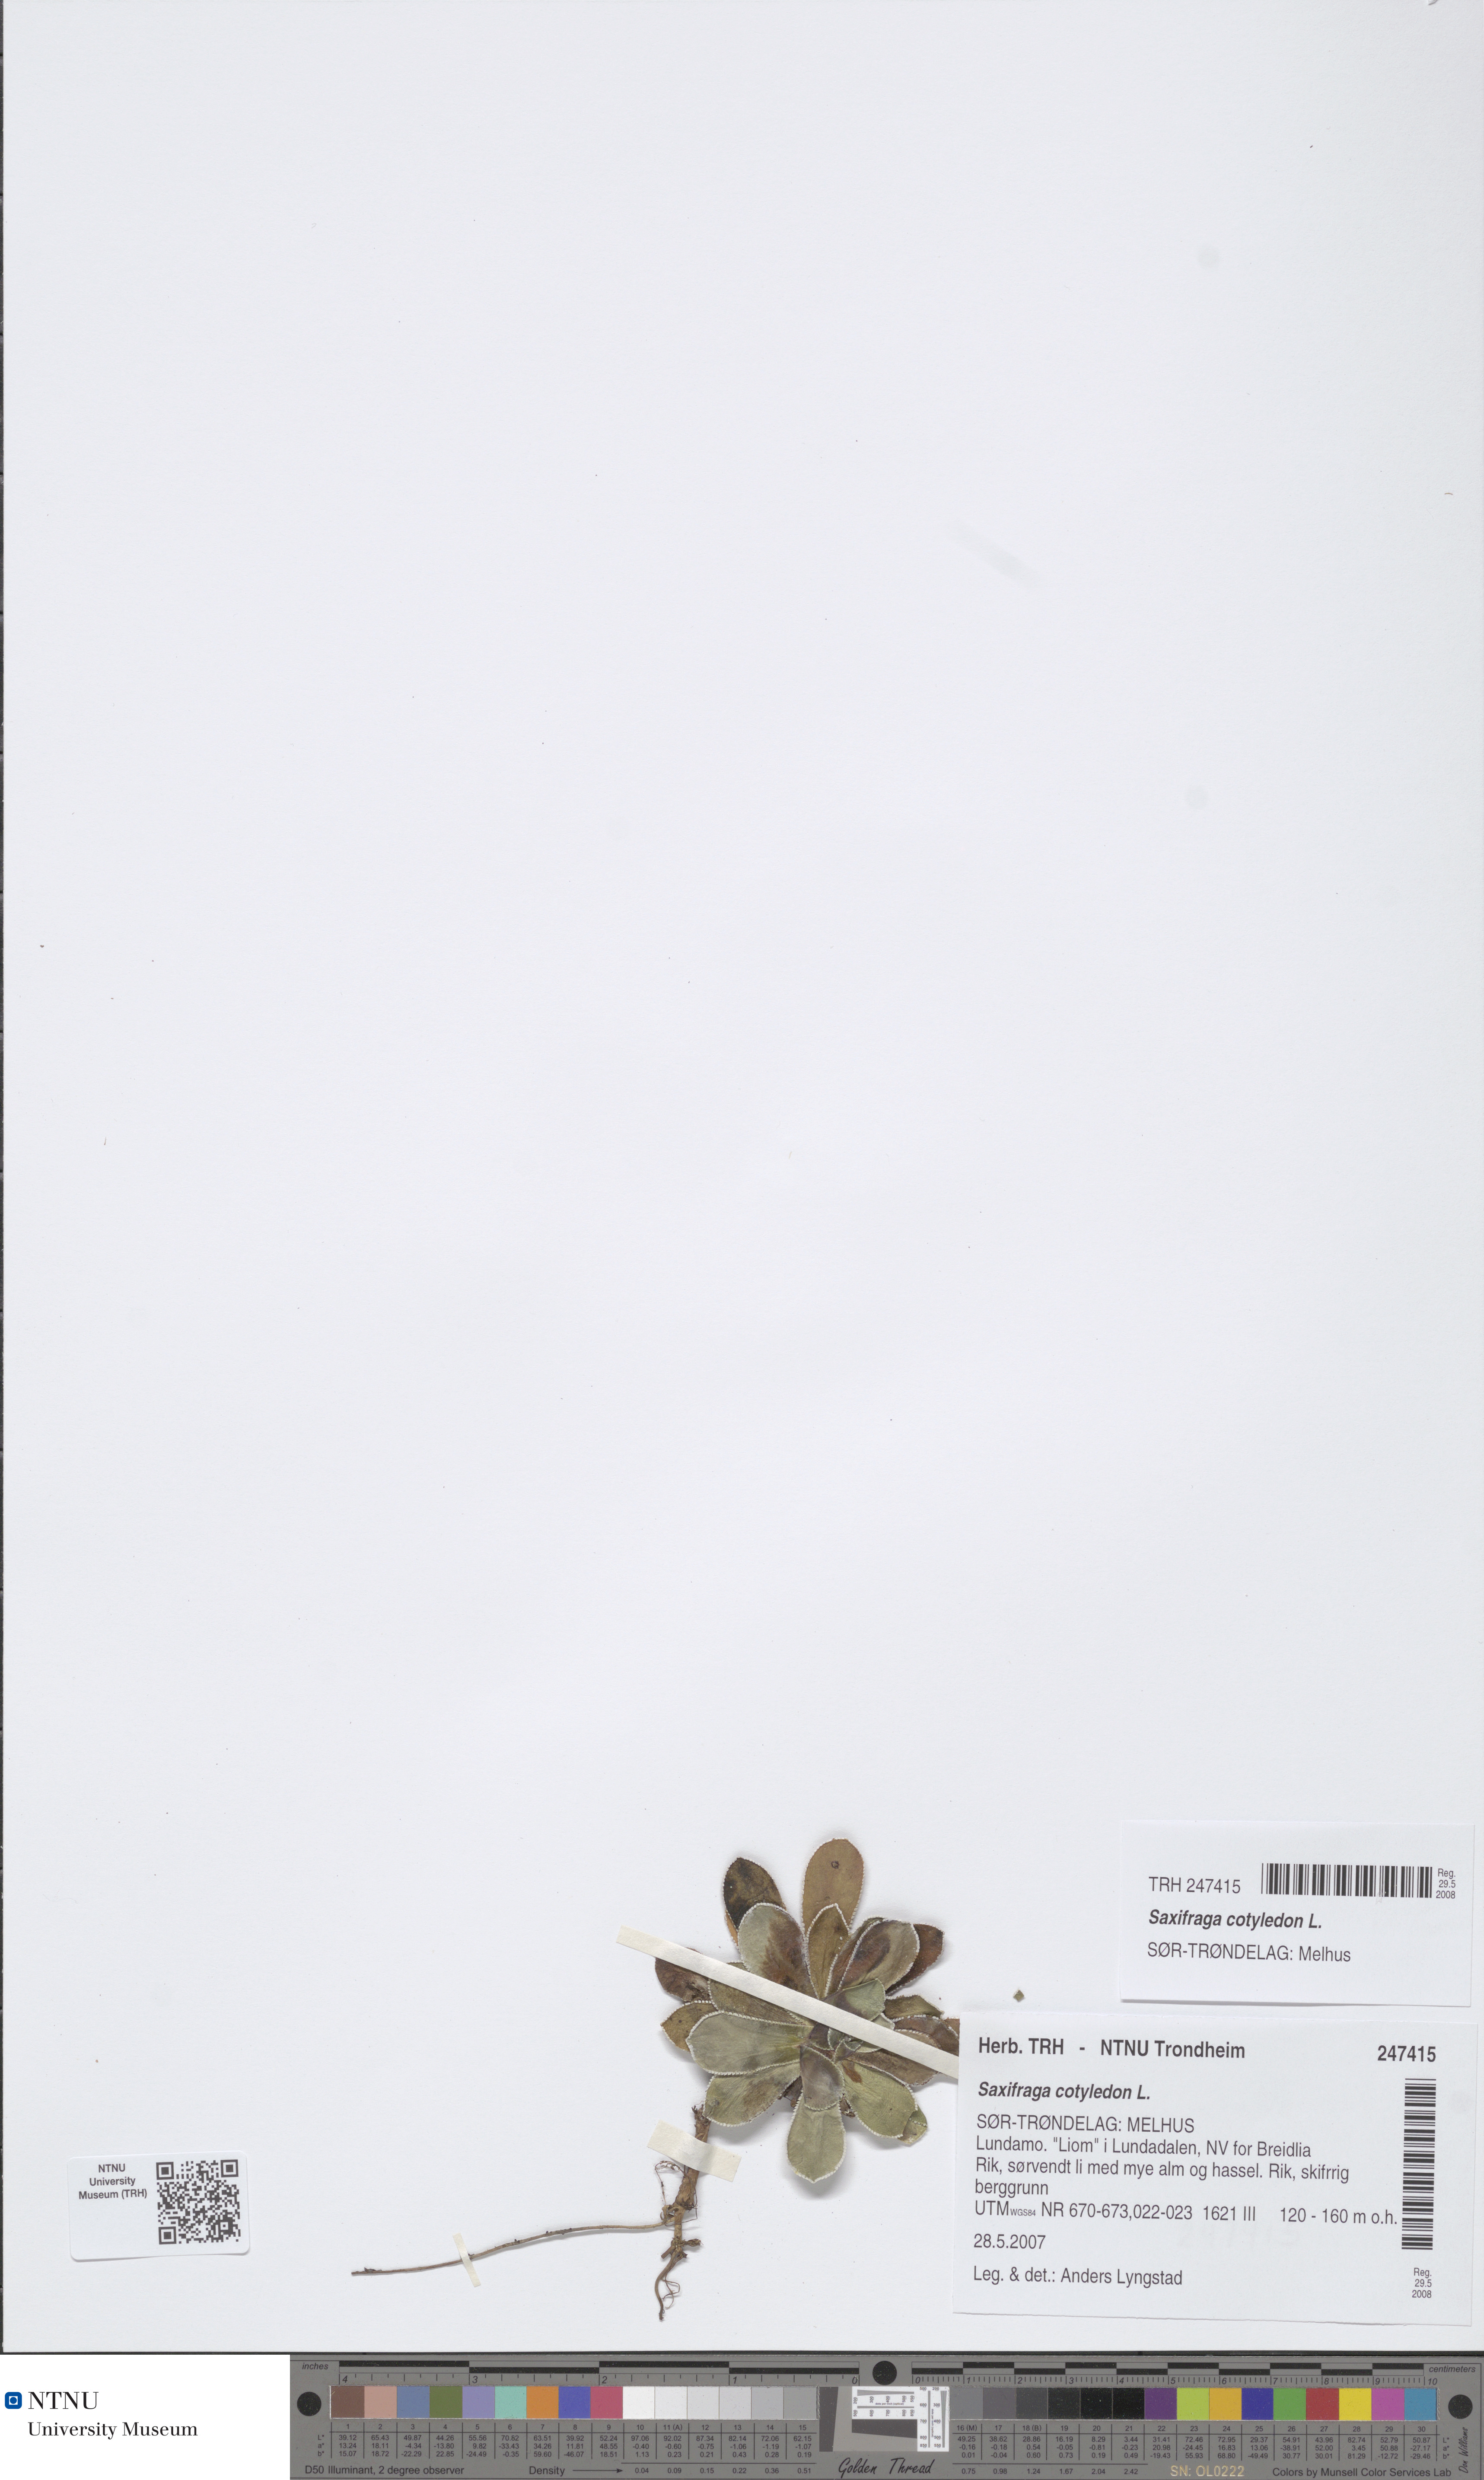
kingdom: Plantae
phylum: Tracheophyta
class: Magnoliopsida
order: Saxifragales
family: Saxifragaceae
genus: Saxifraga
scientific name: Saxifraga cotyledon
